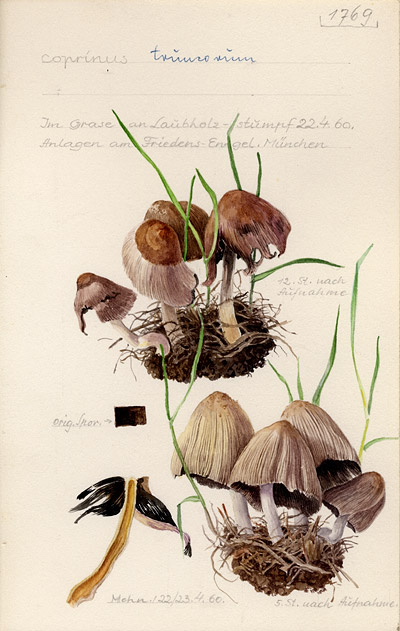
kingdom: Fungi
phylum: Basidiomycota
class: Agaricomycetes
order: Agaricales
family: Psathyrellaceae
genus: Coprinellus
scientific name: Coprinellus truncorum
